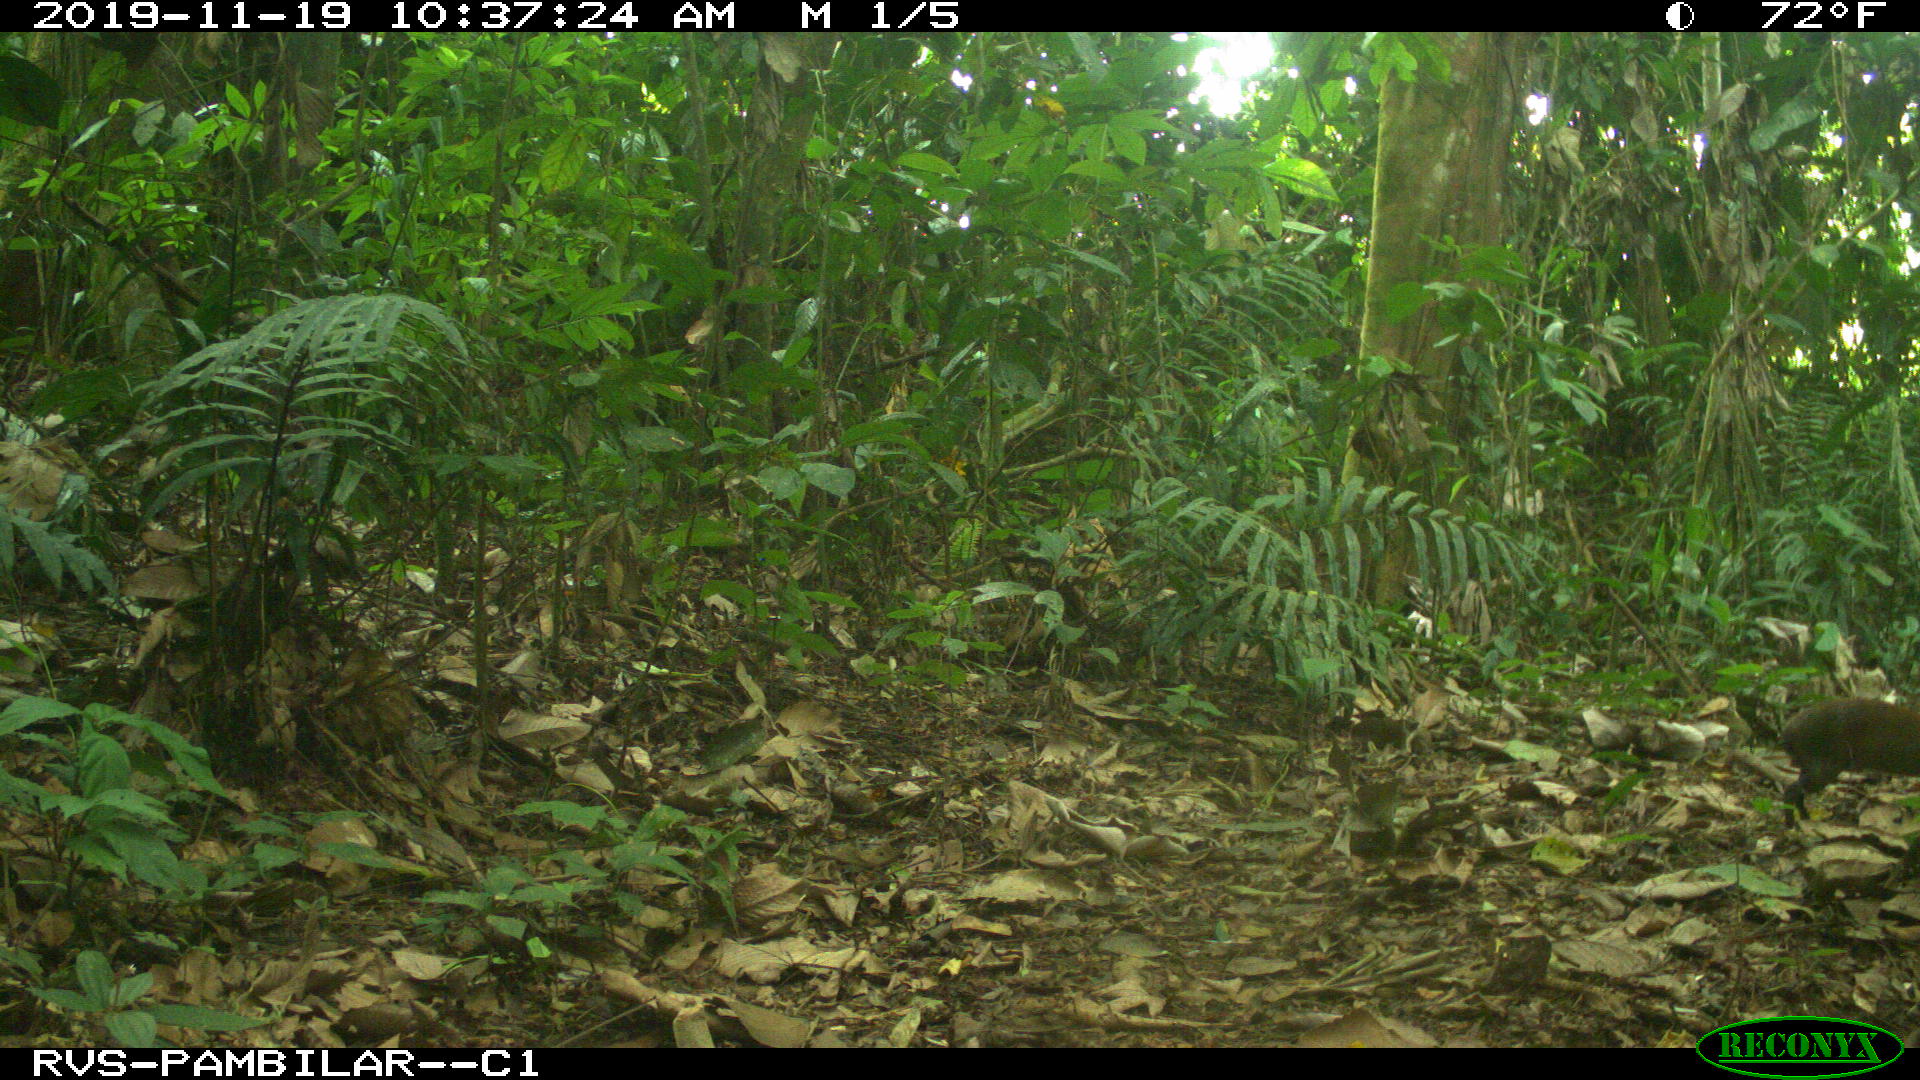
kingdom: Animalia
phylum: Chordata
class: Mammalia
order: Rodentia
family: Dasyproctidae
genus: Dasyprocta
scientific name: Dasyprocta punctata
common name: Central american agouti
